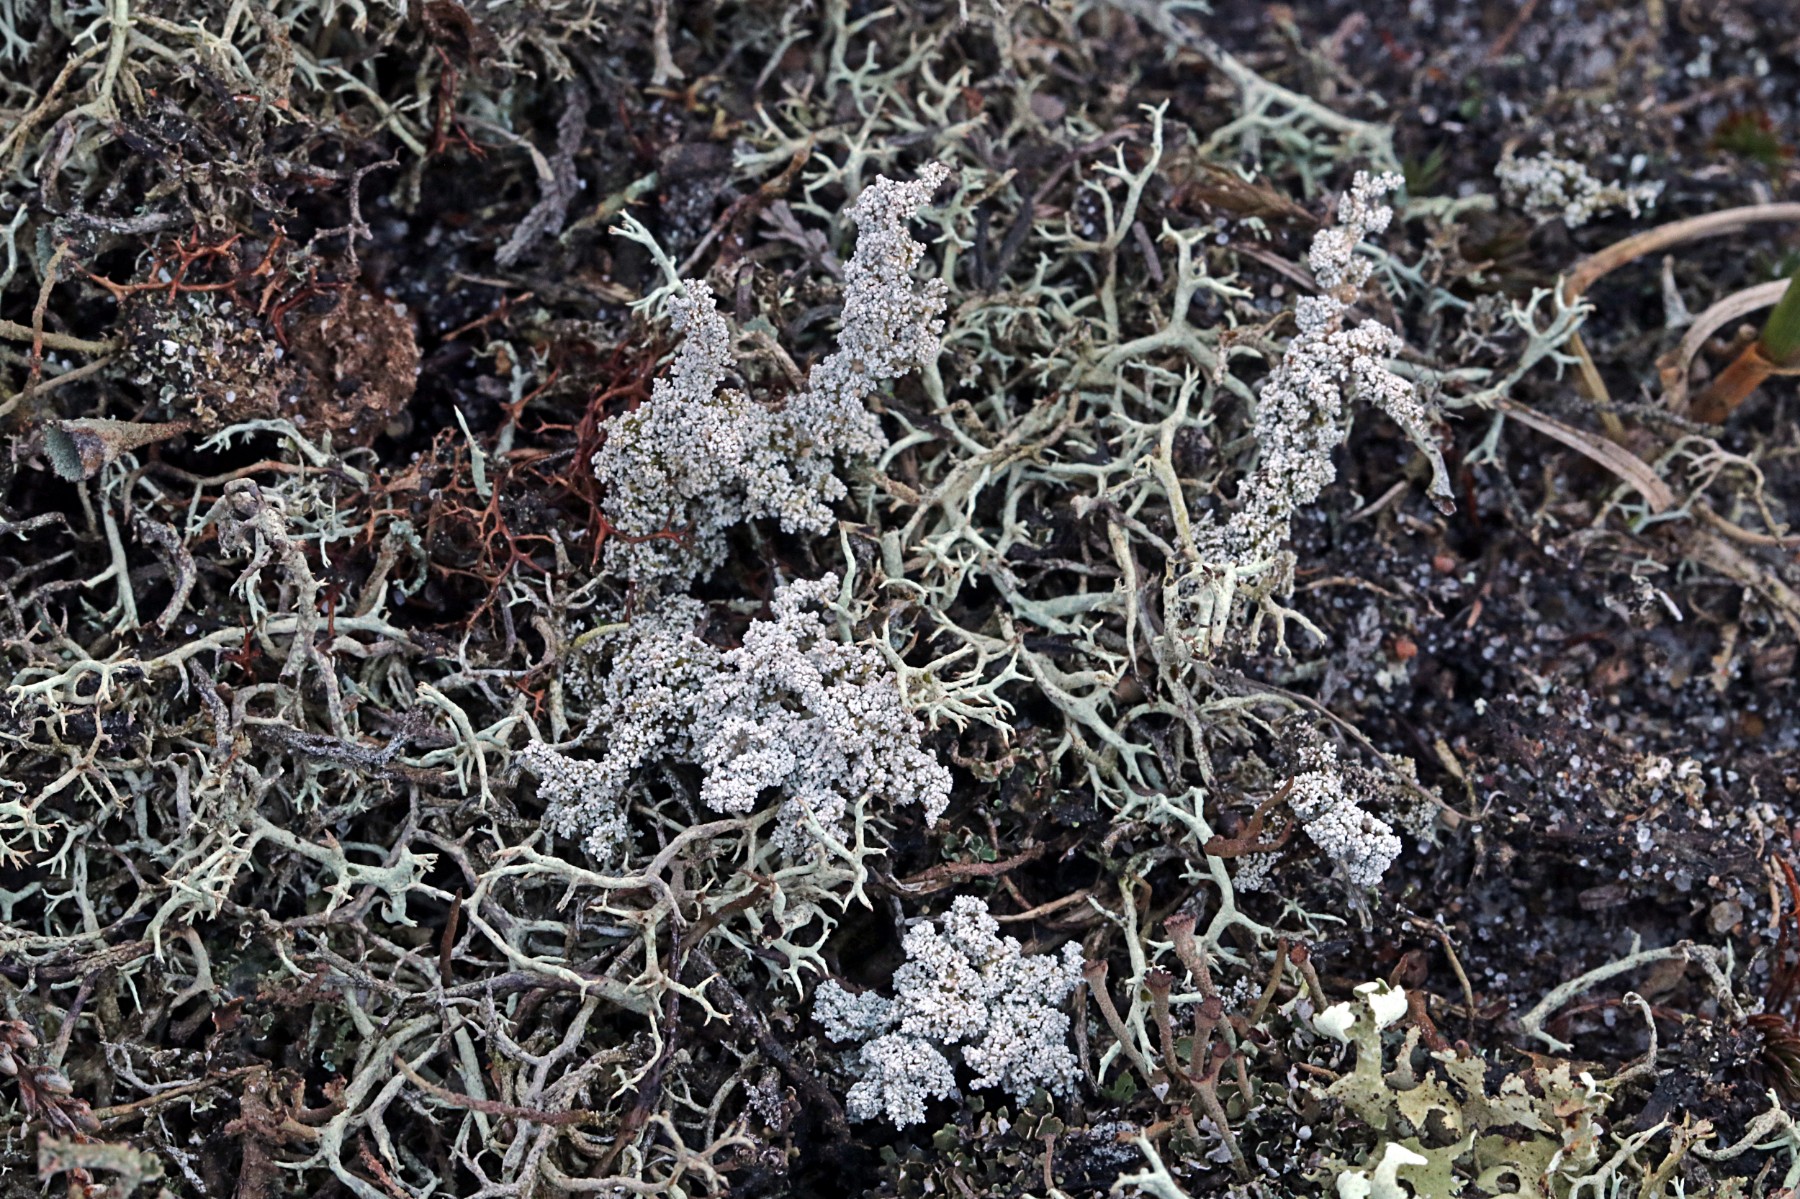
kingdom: Fungi
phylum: Ascomycota
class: Lecanoromycetes
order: Lecanorales
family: Stereocaulaceae
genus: Stereocaulon
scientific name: Stereocaulon saxatile
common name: klit-korallav
